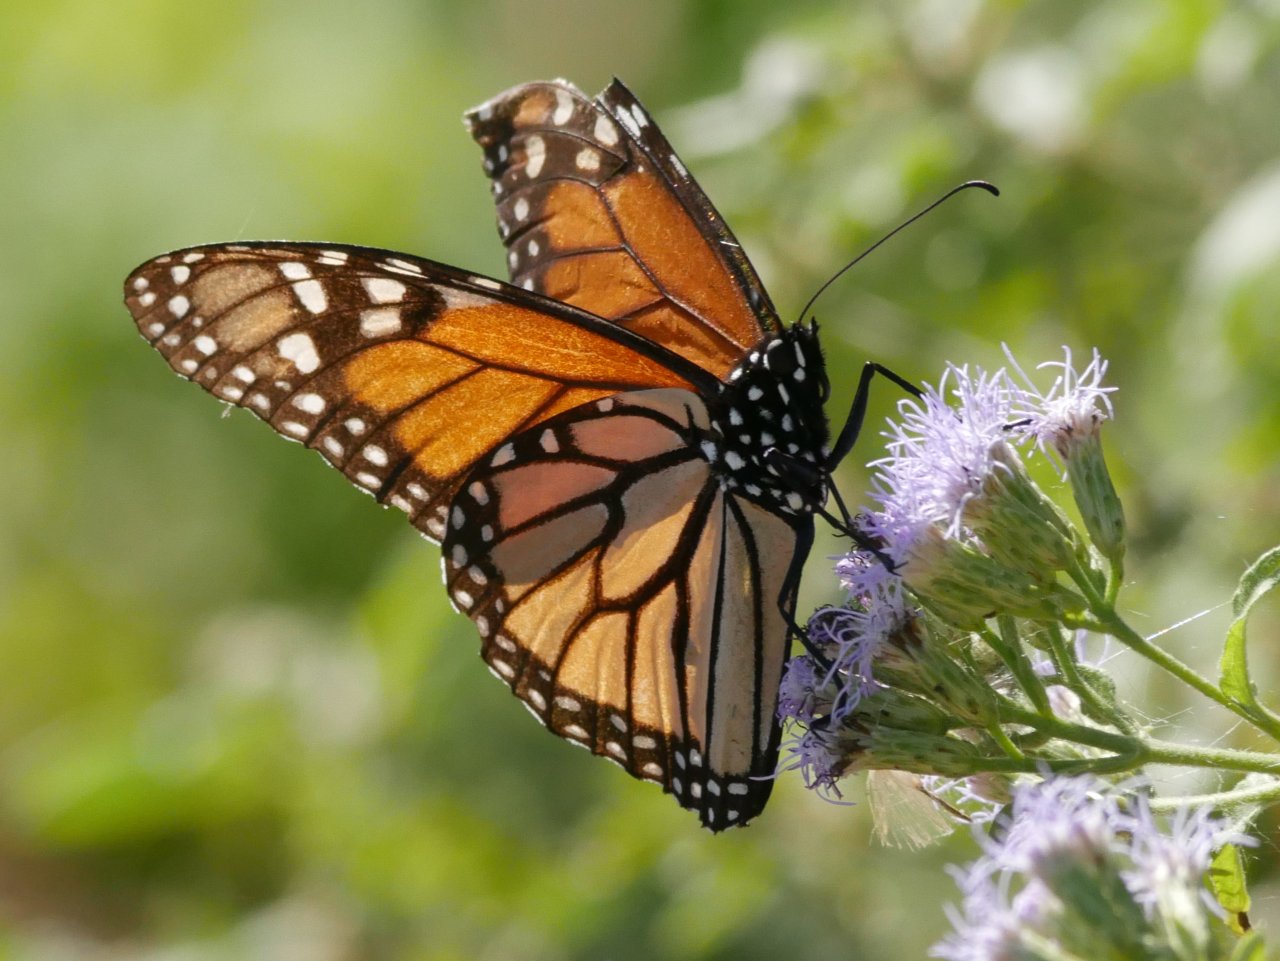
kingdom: Animalia
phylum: Arthropoda
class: Insecta
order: Lepidoptera
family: Nymphalidae
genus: Danaus
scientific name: Danaus plexippus
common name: Monarch
